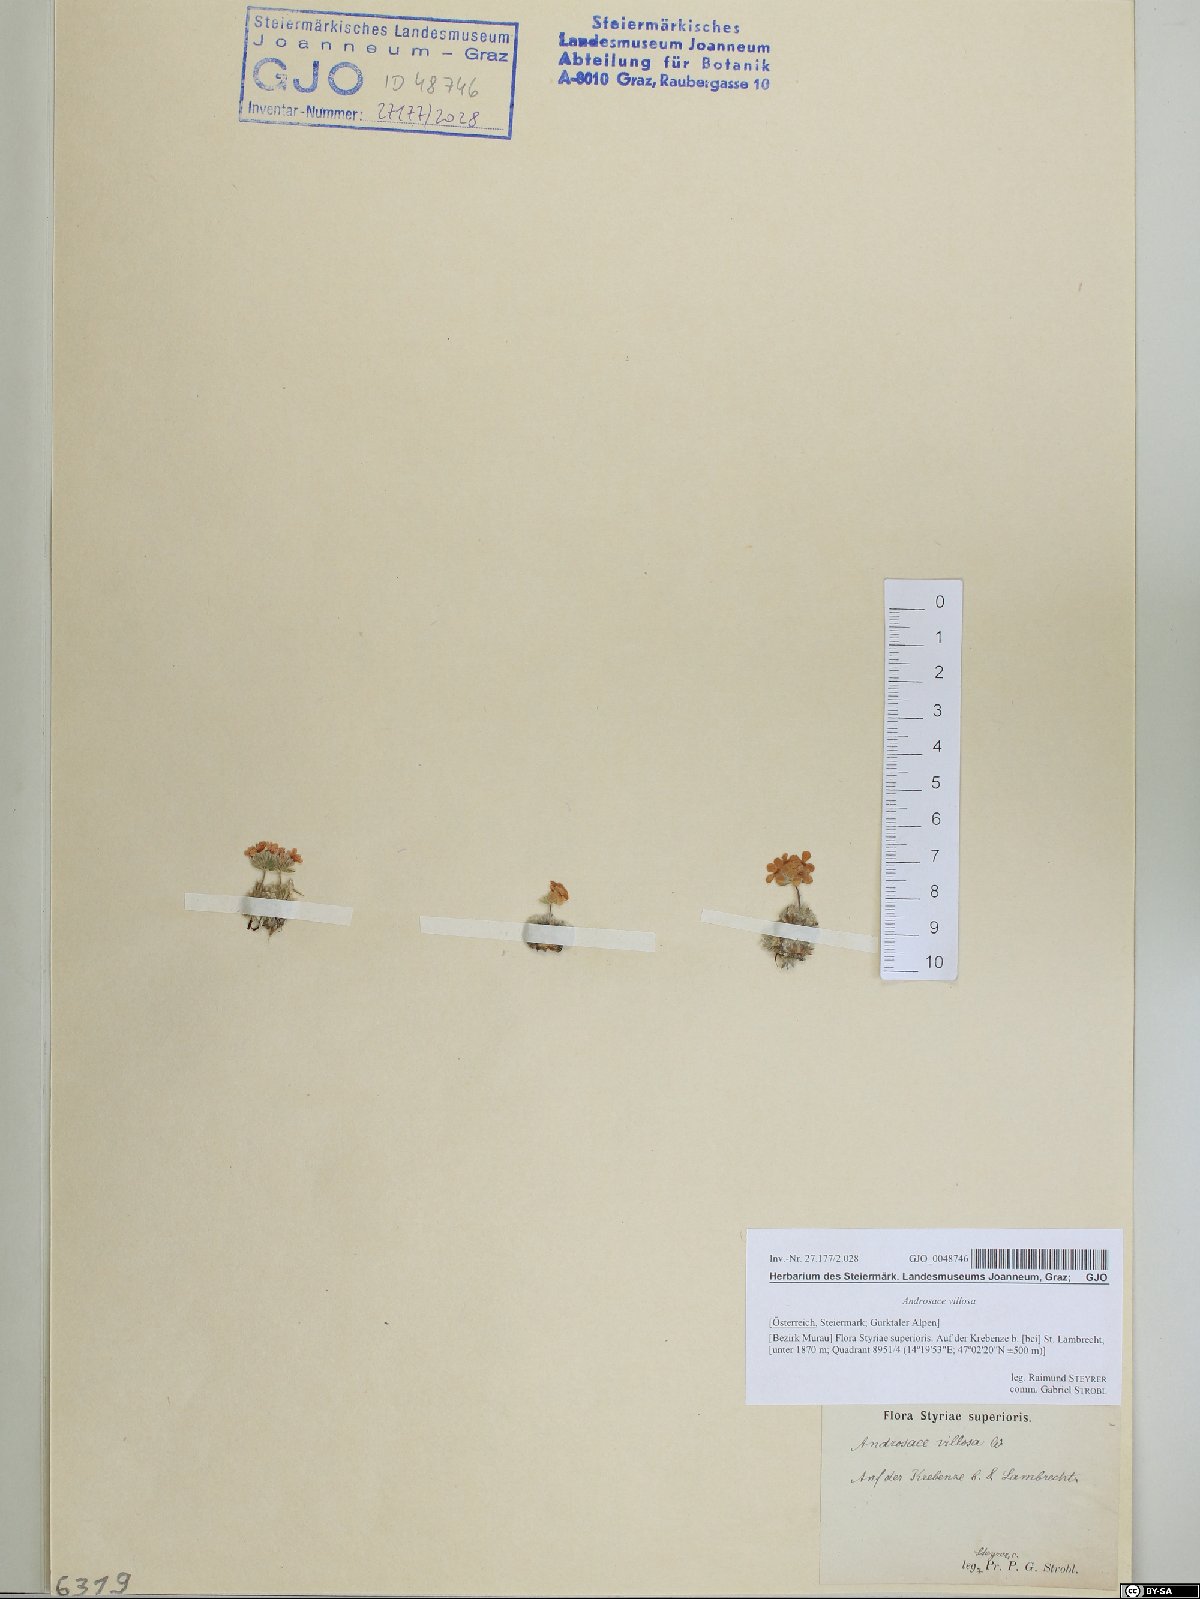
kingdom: Plantae
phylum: Tracheophyta
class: Magnoliopsida
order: Ericales
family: Primulaceae
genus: Androsace
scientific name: Androsace villosa
